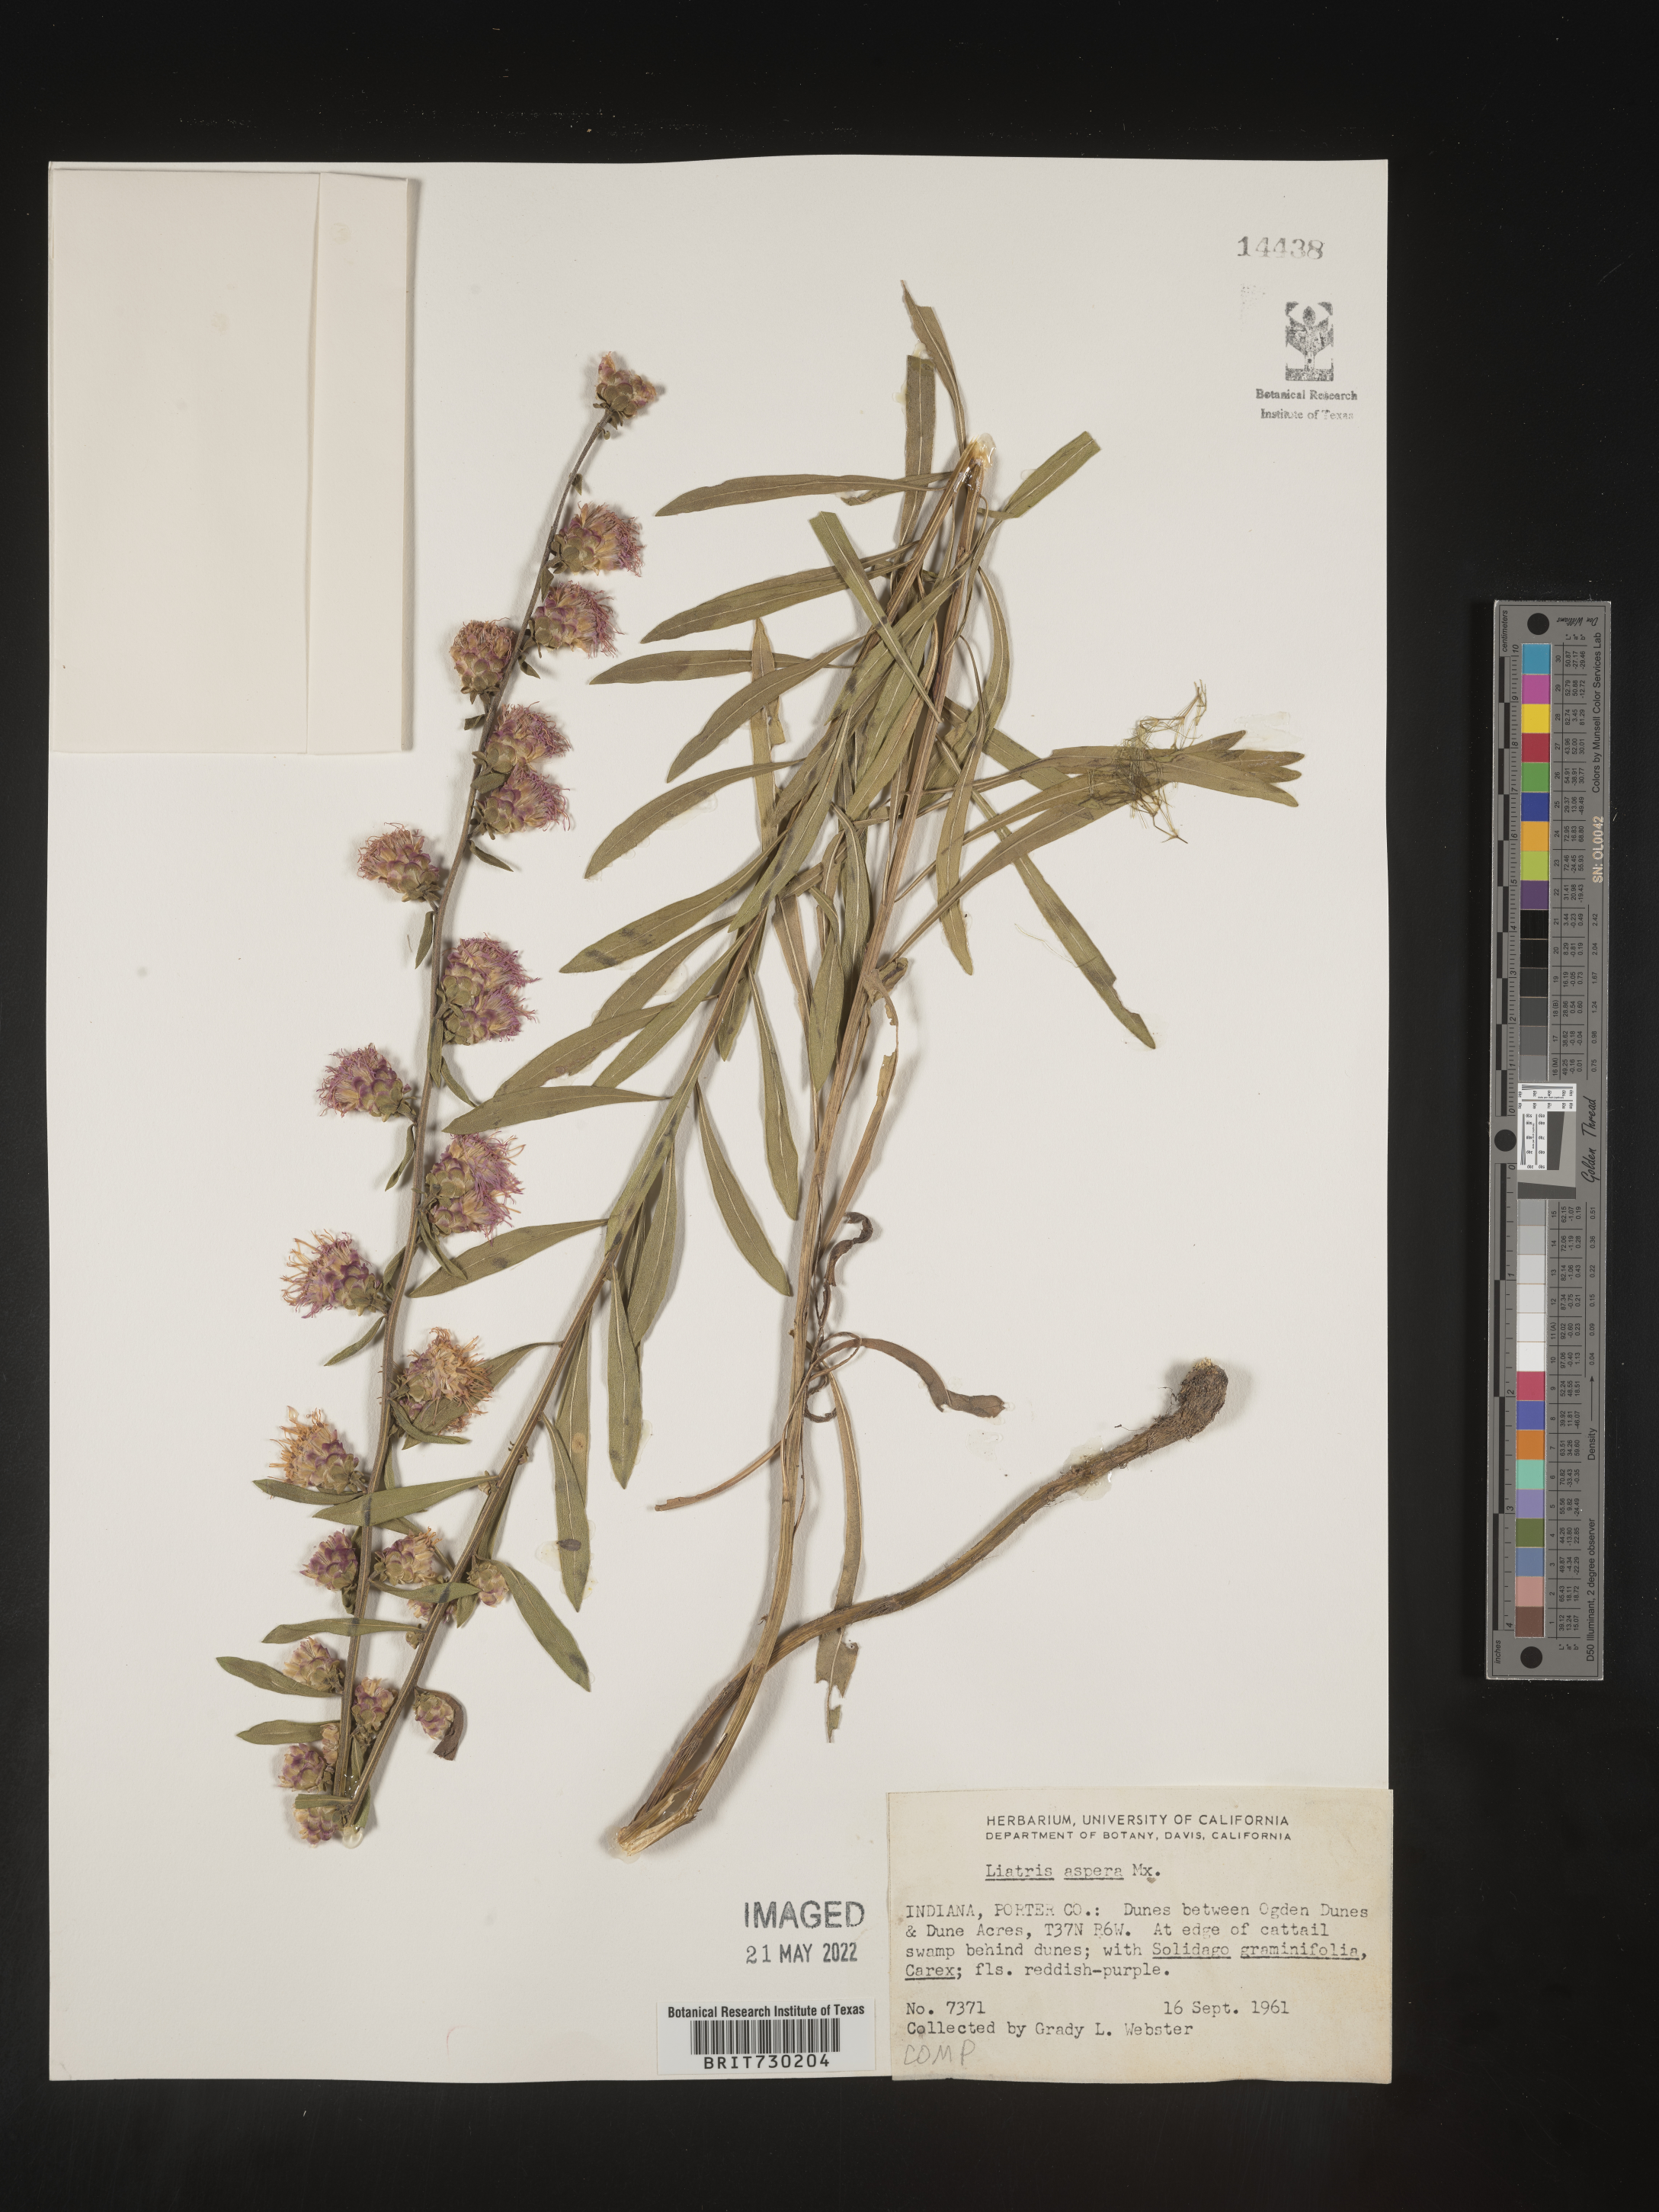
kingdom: Plantae
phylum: Tracheophyta
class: Magnoliopsida
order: Asterales
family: Asteraceae
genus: Liatris
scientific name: Liatris aspera
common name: Lacerate blazing-star
